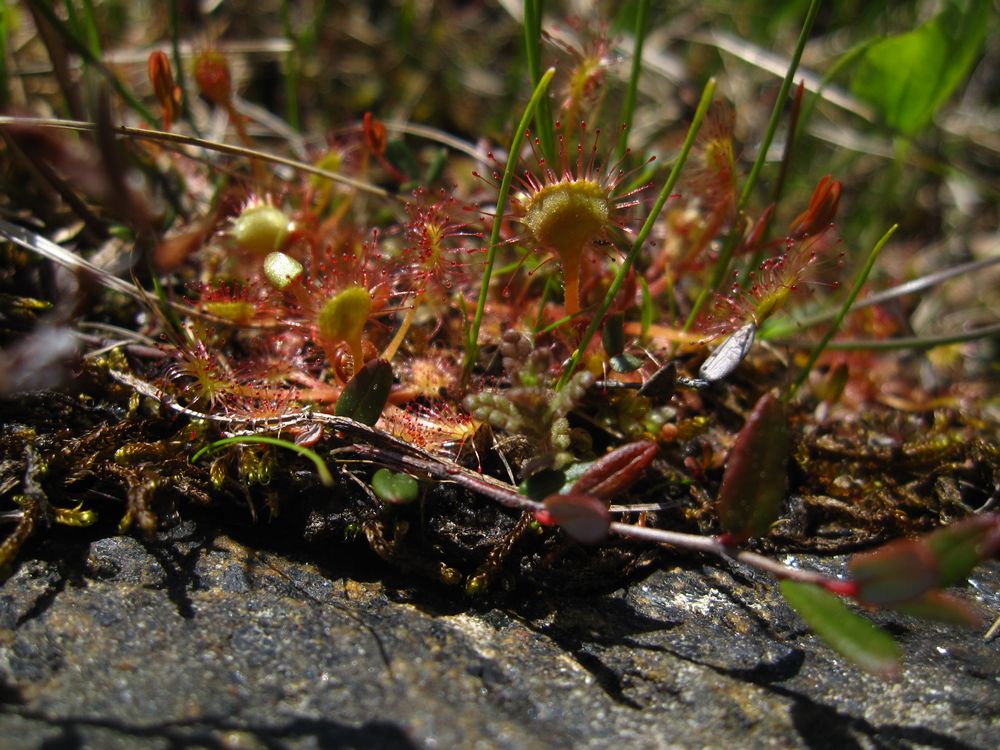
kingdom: Plantae
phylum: Tracheophyta
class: Magnoliopsida
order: Caryophyllales
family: Droseraceae
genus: Drosera
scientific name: Drosera rotundifolia
